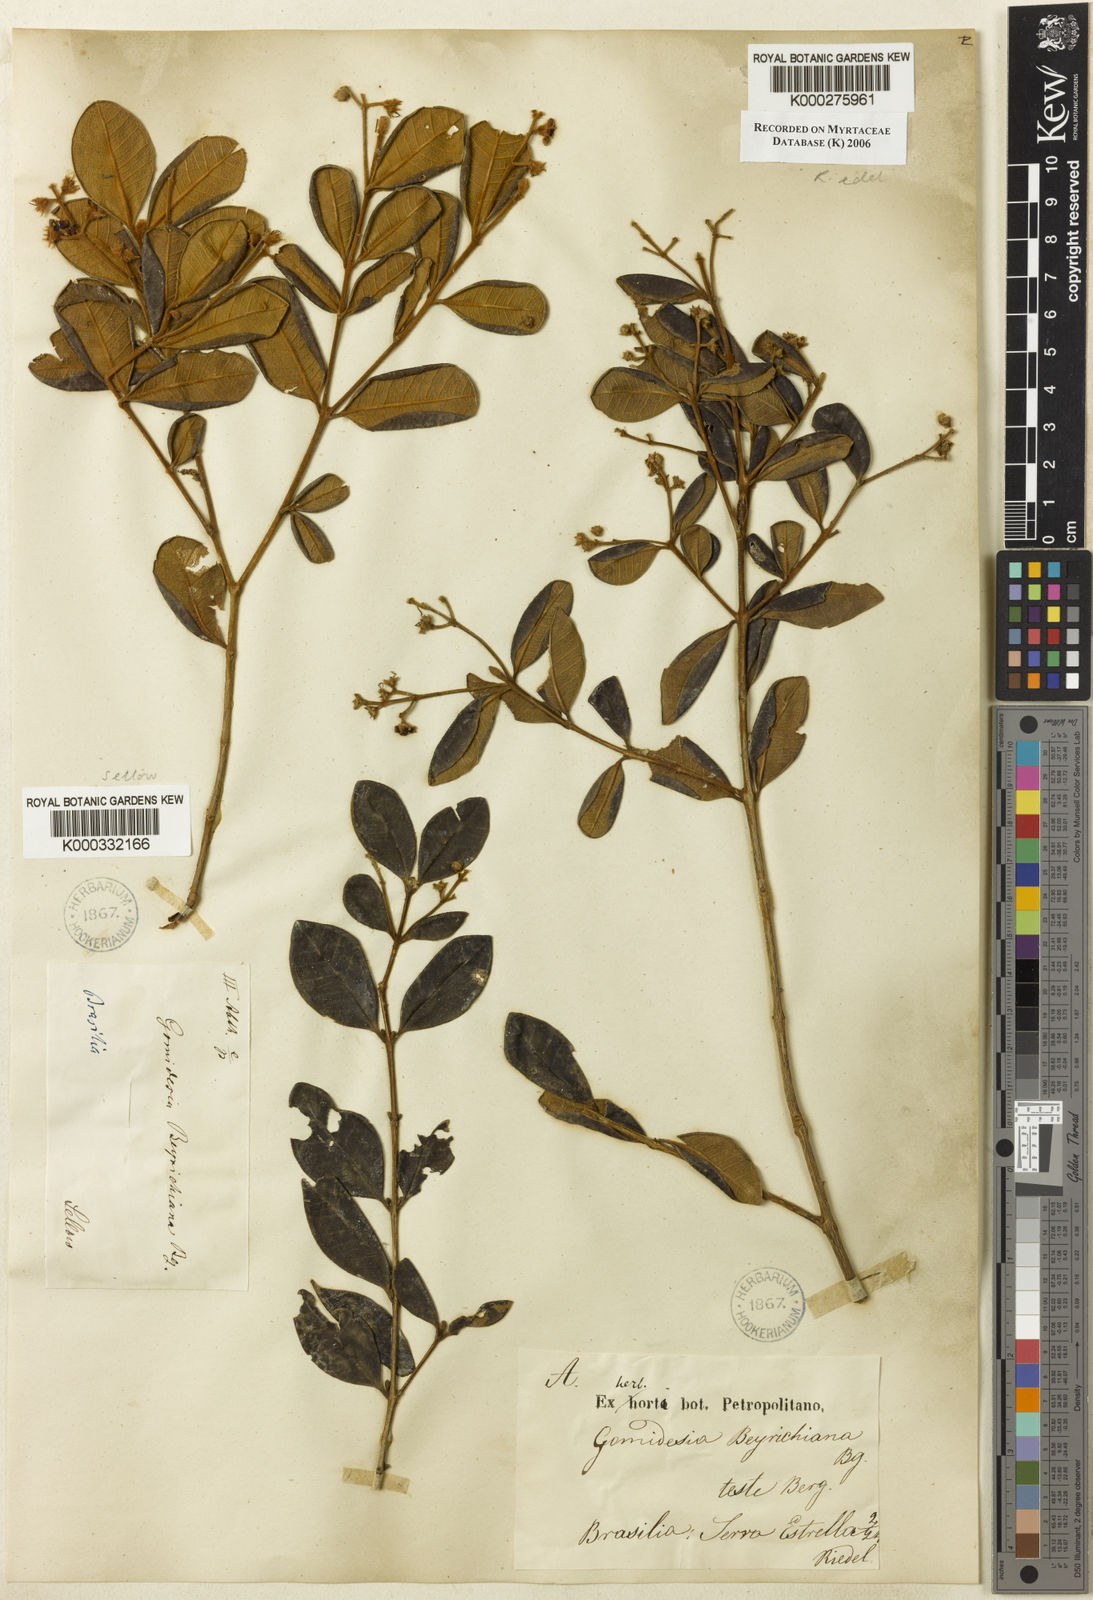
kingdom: Plantae
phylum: Tracheophyta
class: Magnoliopsida
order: Myrtales
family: Myrtaceae
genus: Myrcia
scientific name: Myrcia eriocalyx
